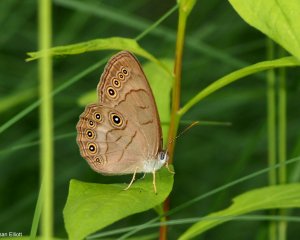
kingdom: Animalia
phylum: Arthropoda
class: Insecta
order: Lepidoptera
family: Nymphalidae
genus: Lethe
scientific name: Lethe eurydice
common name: Appalachian Eyed Brown
